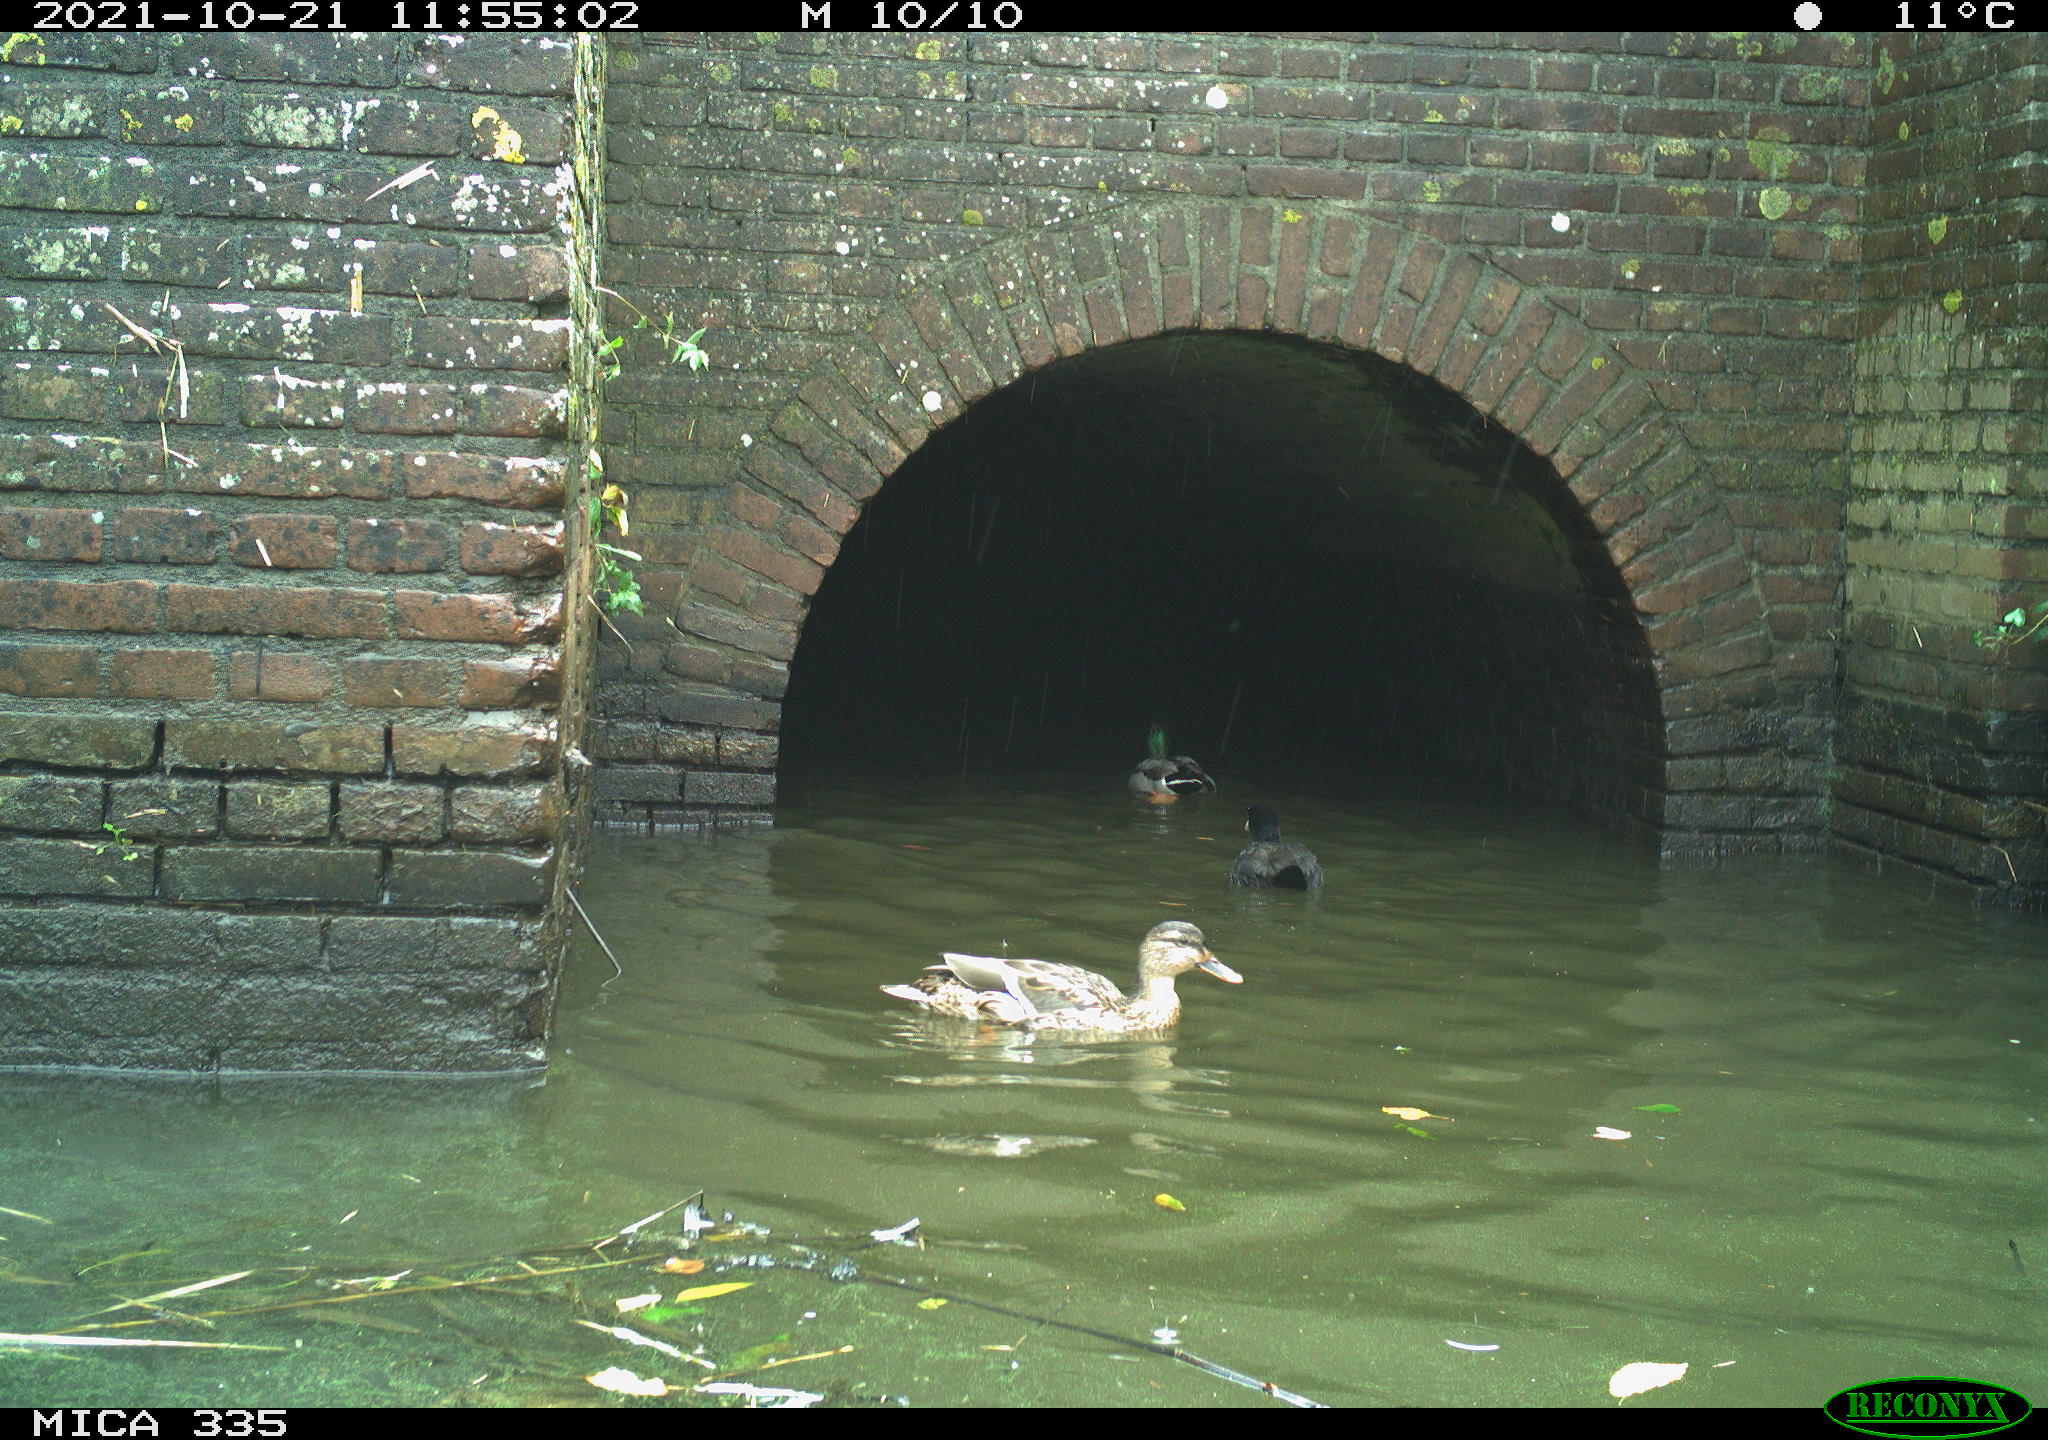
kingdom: Animalia
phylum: Chordata
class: Aves
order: Anseriformes
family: Anatidae
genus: Anas
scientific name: Anas platyrhynchos
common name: Mallard
